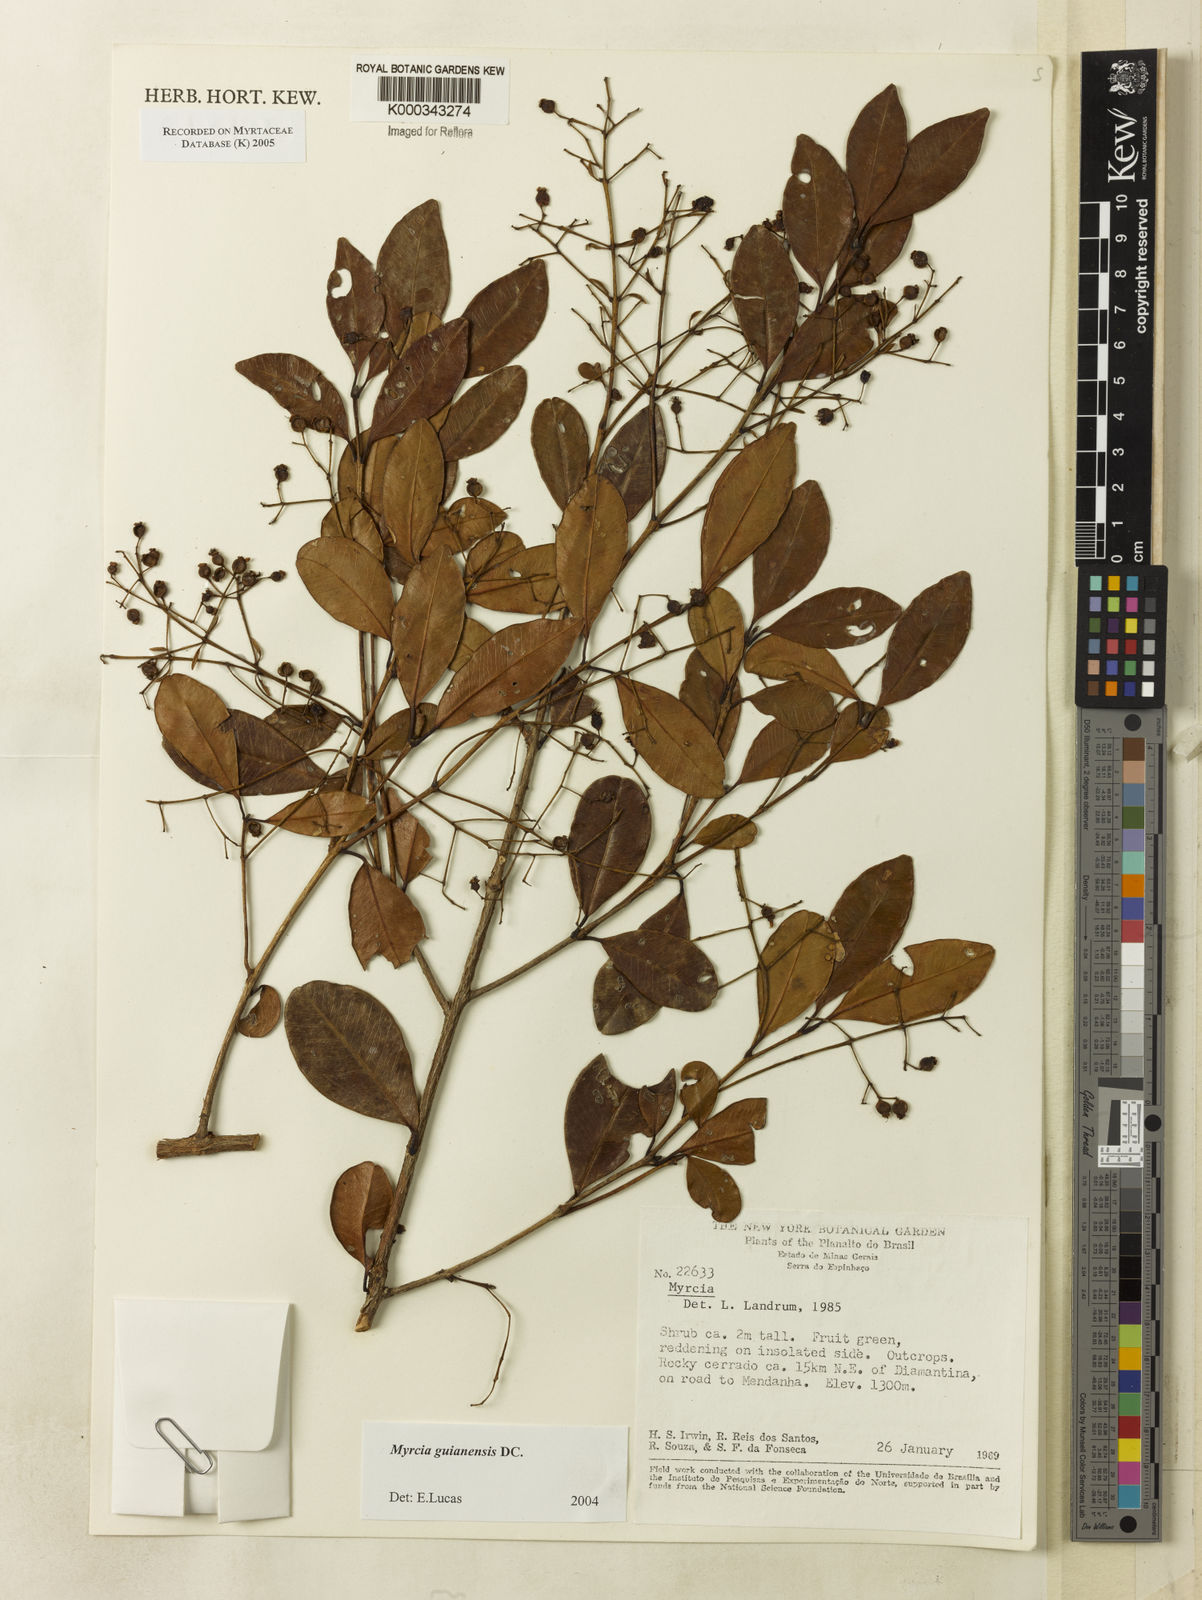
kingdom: Plantae
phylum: Tracheophyta
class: Magnoliopsida
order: Myrtales
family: Myrtaceae
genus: Myrcia
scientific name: Myrcia guianensis
